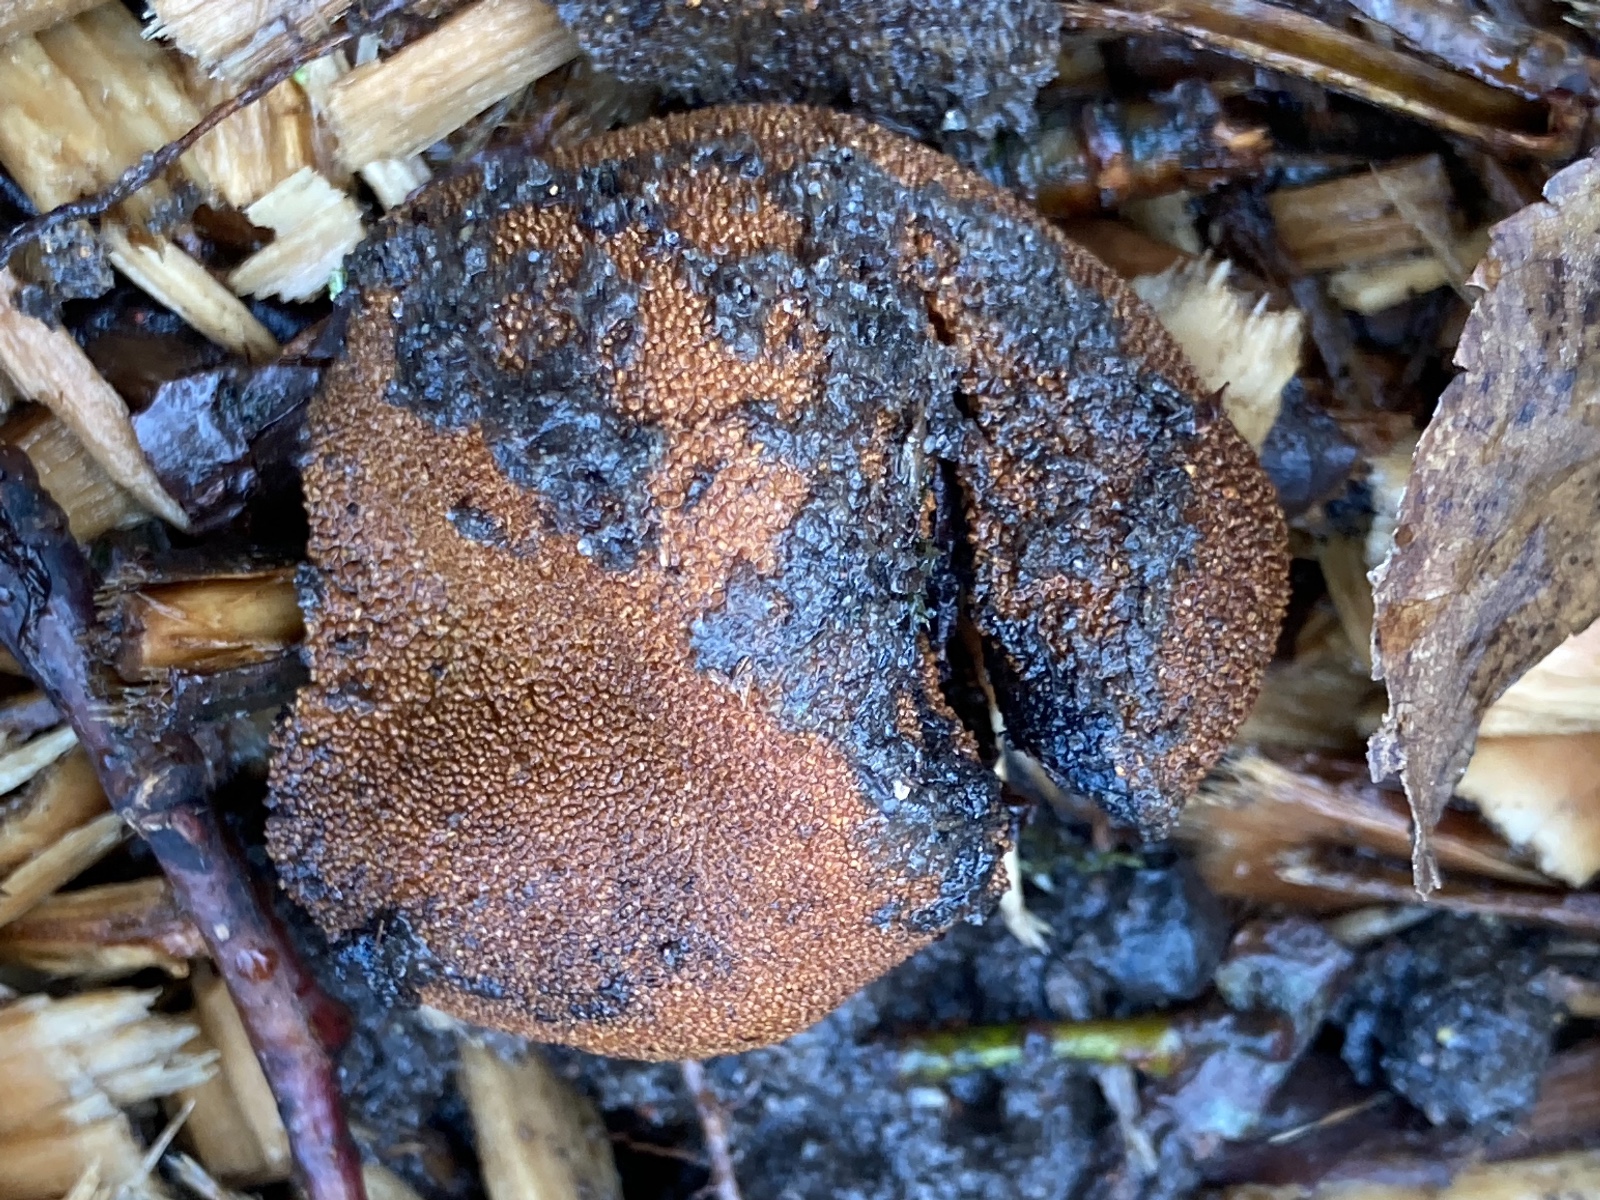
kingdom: Fungi
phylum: Ascomycota
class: Eurotiomycetes
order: Eurotiales
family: Elaphomycetaceae
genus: Elaphomyces
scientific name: Elaphomyces muricatus
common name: vortet hjortetrøffel
